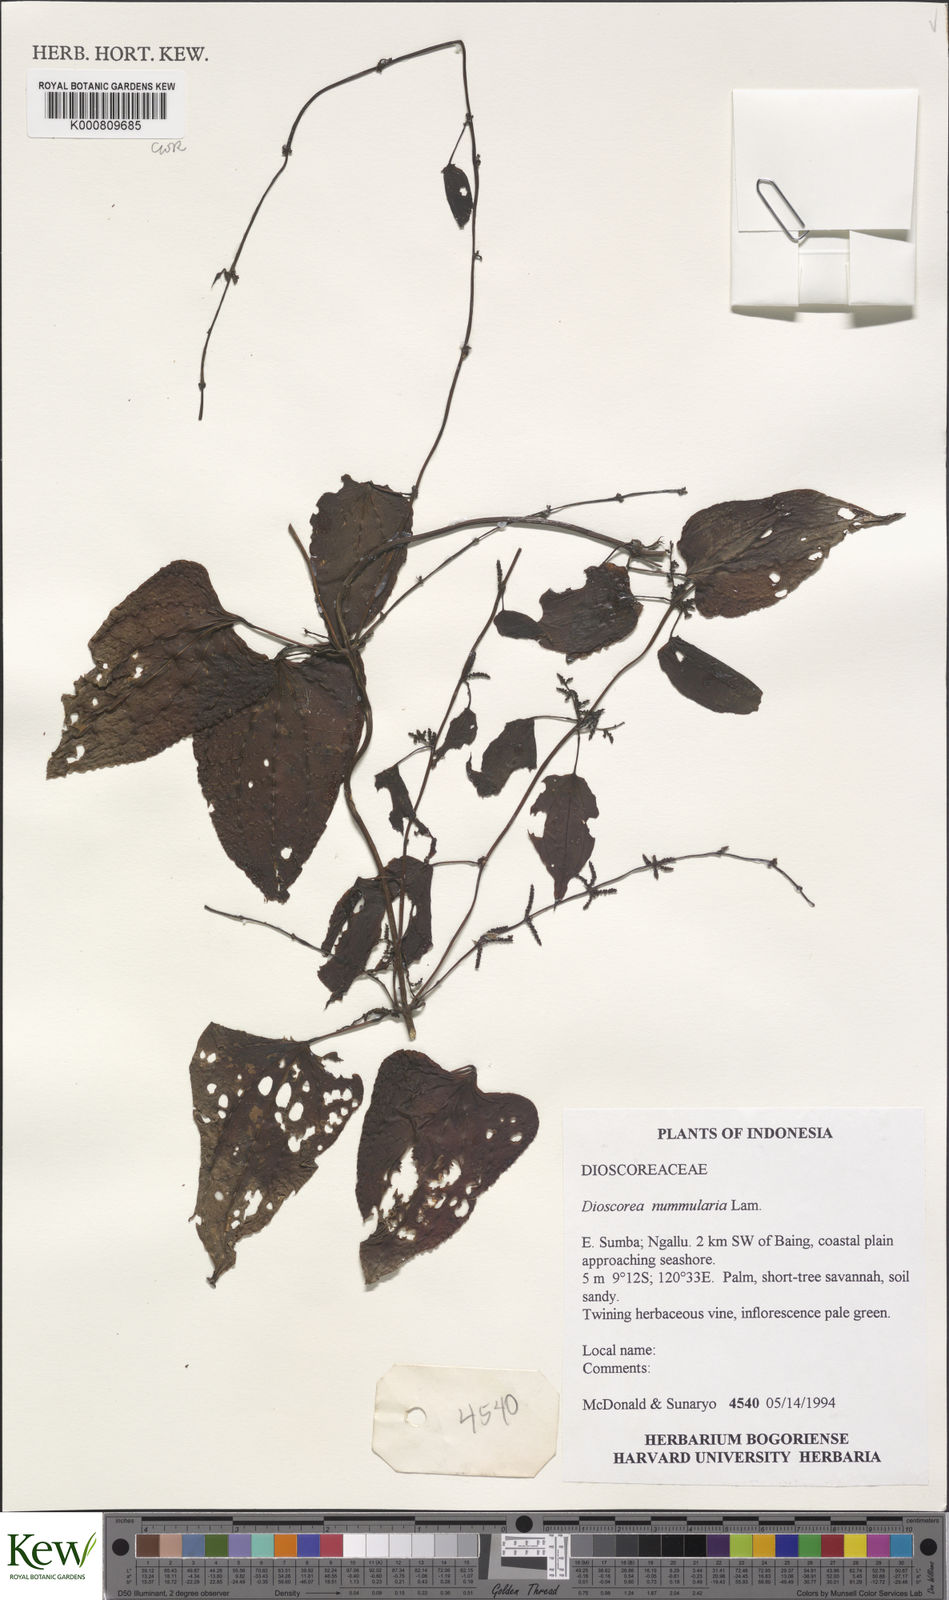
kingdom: Plantae
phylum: Tracheophyta
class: Liliopsida
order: Dioscoreales
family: Dioscoreaceae
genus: Dioscorea
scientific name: Dioscorea nummularia
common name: Pacific yam
